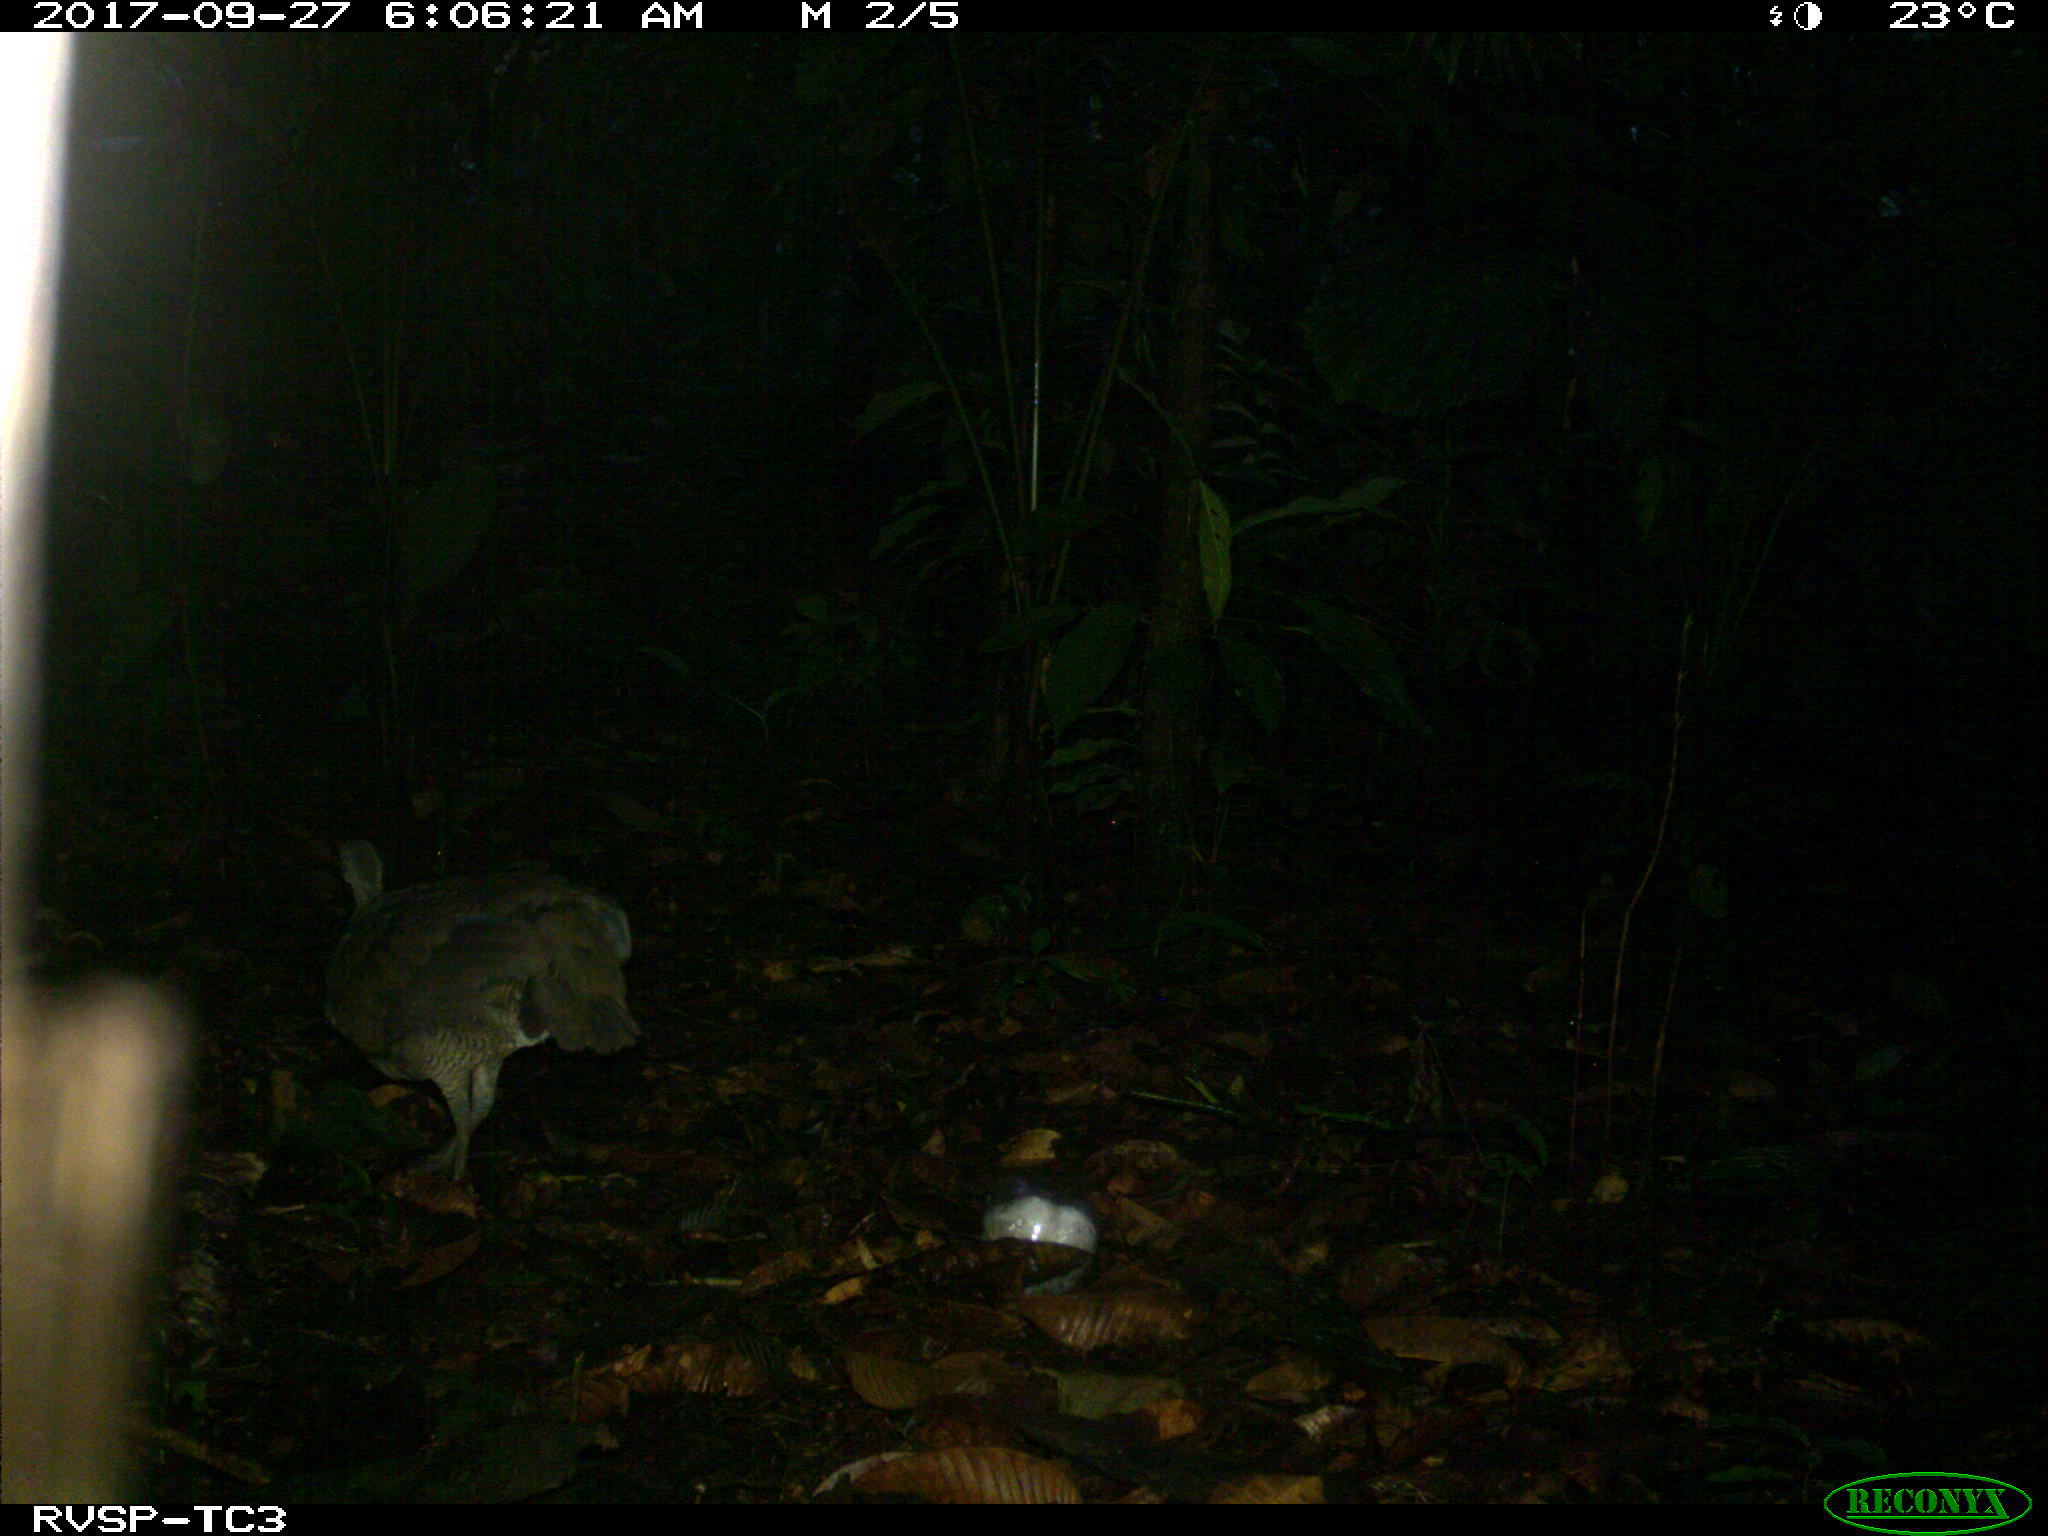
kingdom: Animalia
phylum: Chordata
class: Aves
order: Tinamiformes
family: Tinamidae
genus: Tinamus
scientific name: Tinamus major
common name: Great tinamou
